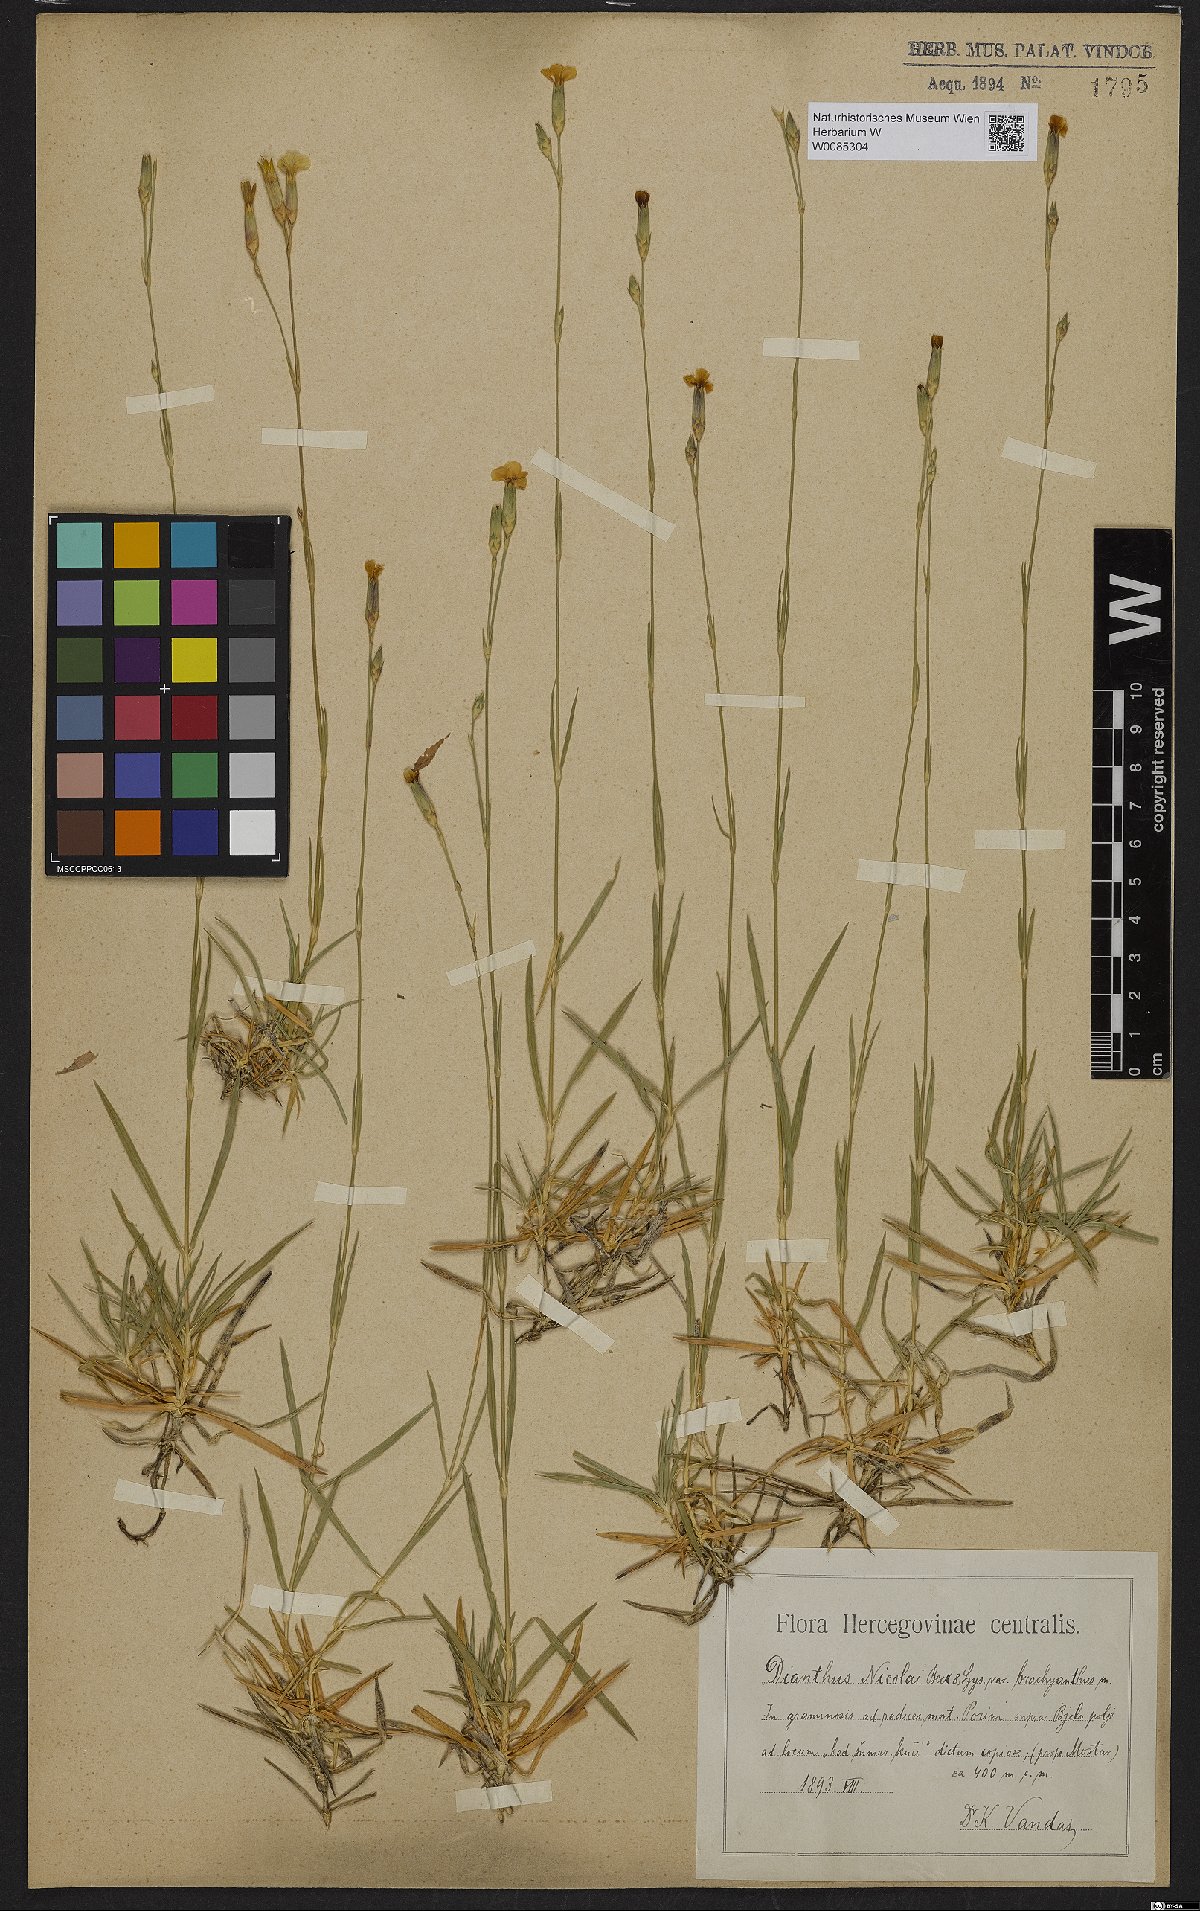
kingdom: Plantae
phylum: Tracheophyta
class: Magnoliopsida
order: Caryophyllales
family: Caryophyllaceae
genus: Dianthus
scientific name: Dianthus petraeus
